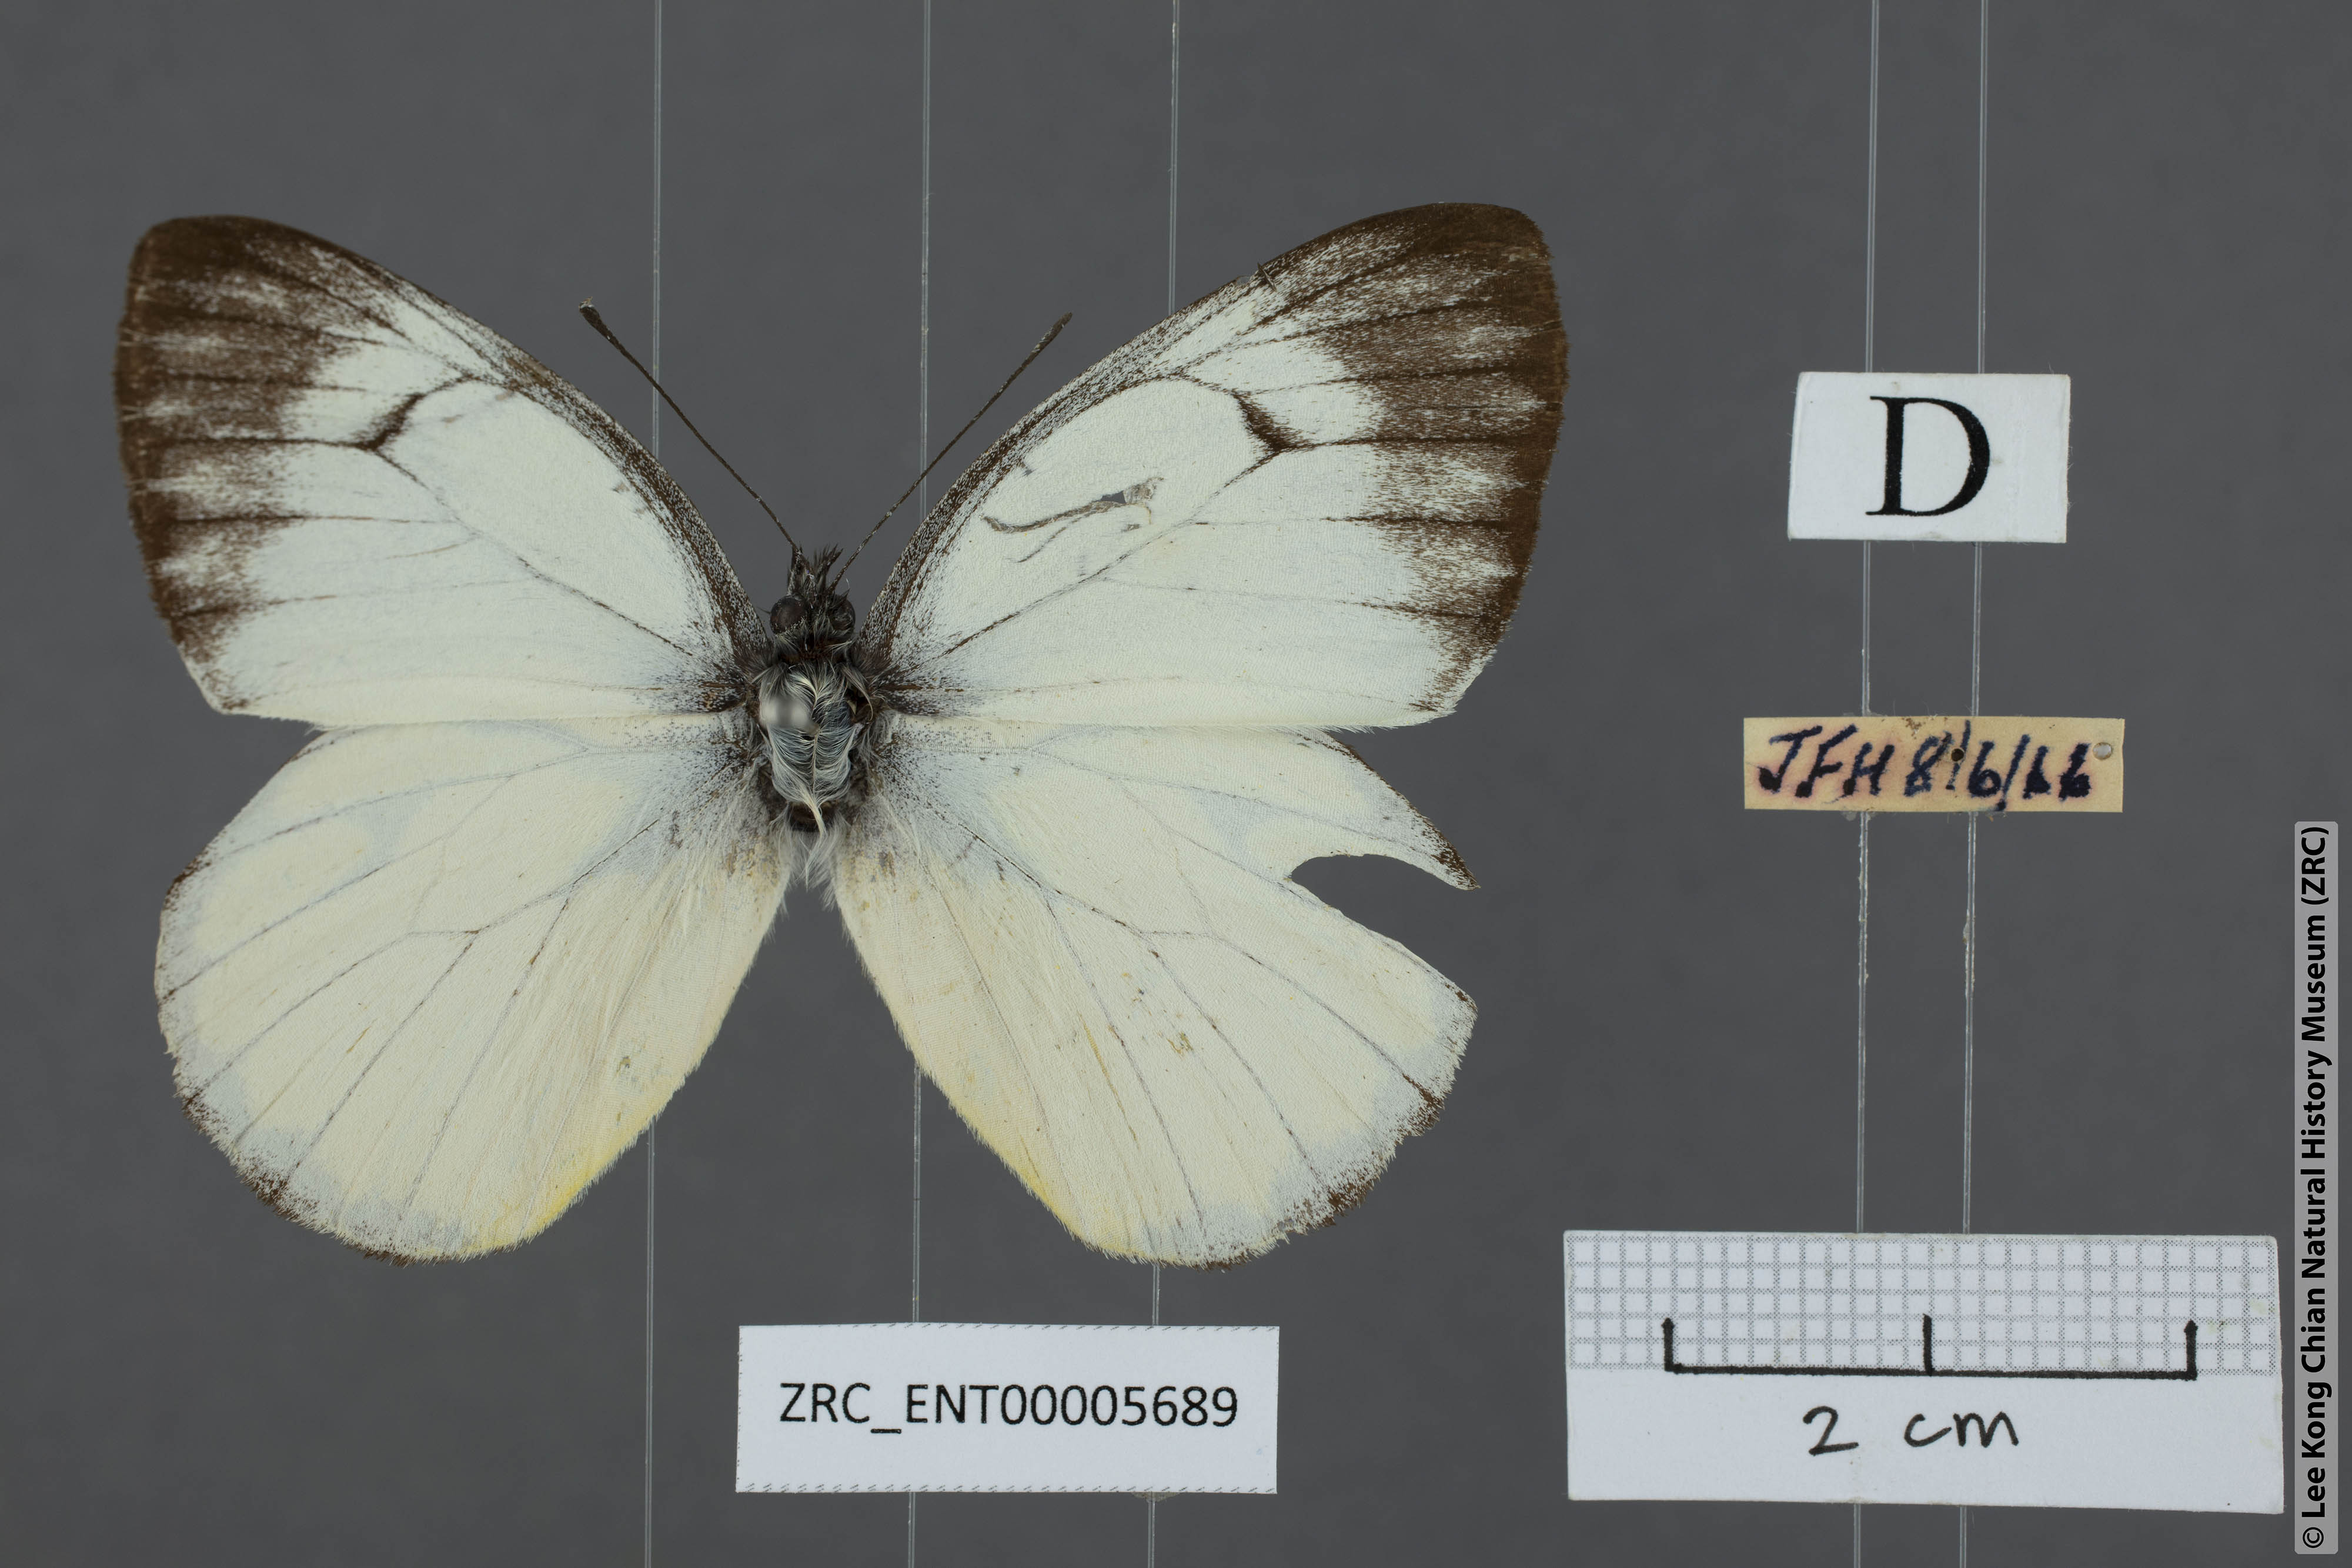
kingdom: Animalia
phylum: Arthropoda
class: Insecta
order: Lepidoptera
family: Pieridae
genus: Delias
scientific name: Delias georgina
